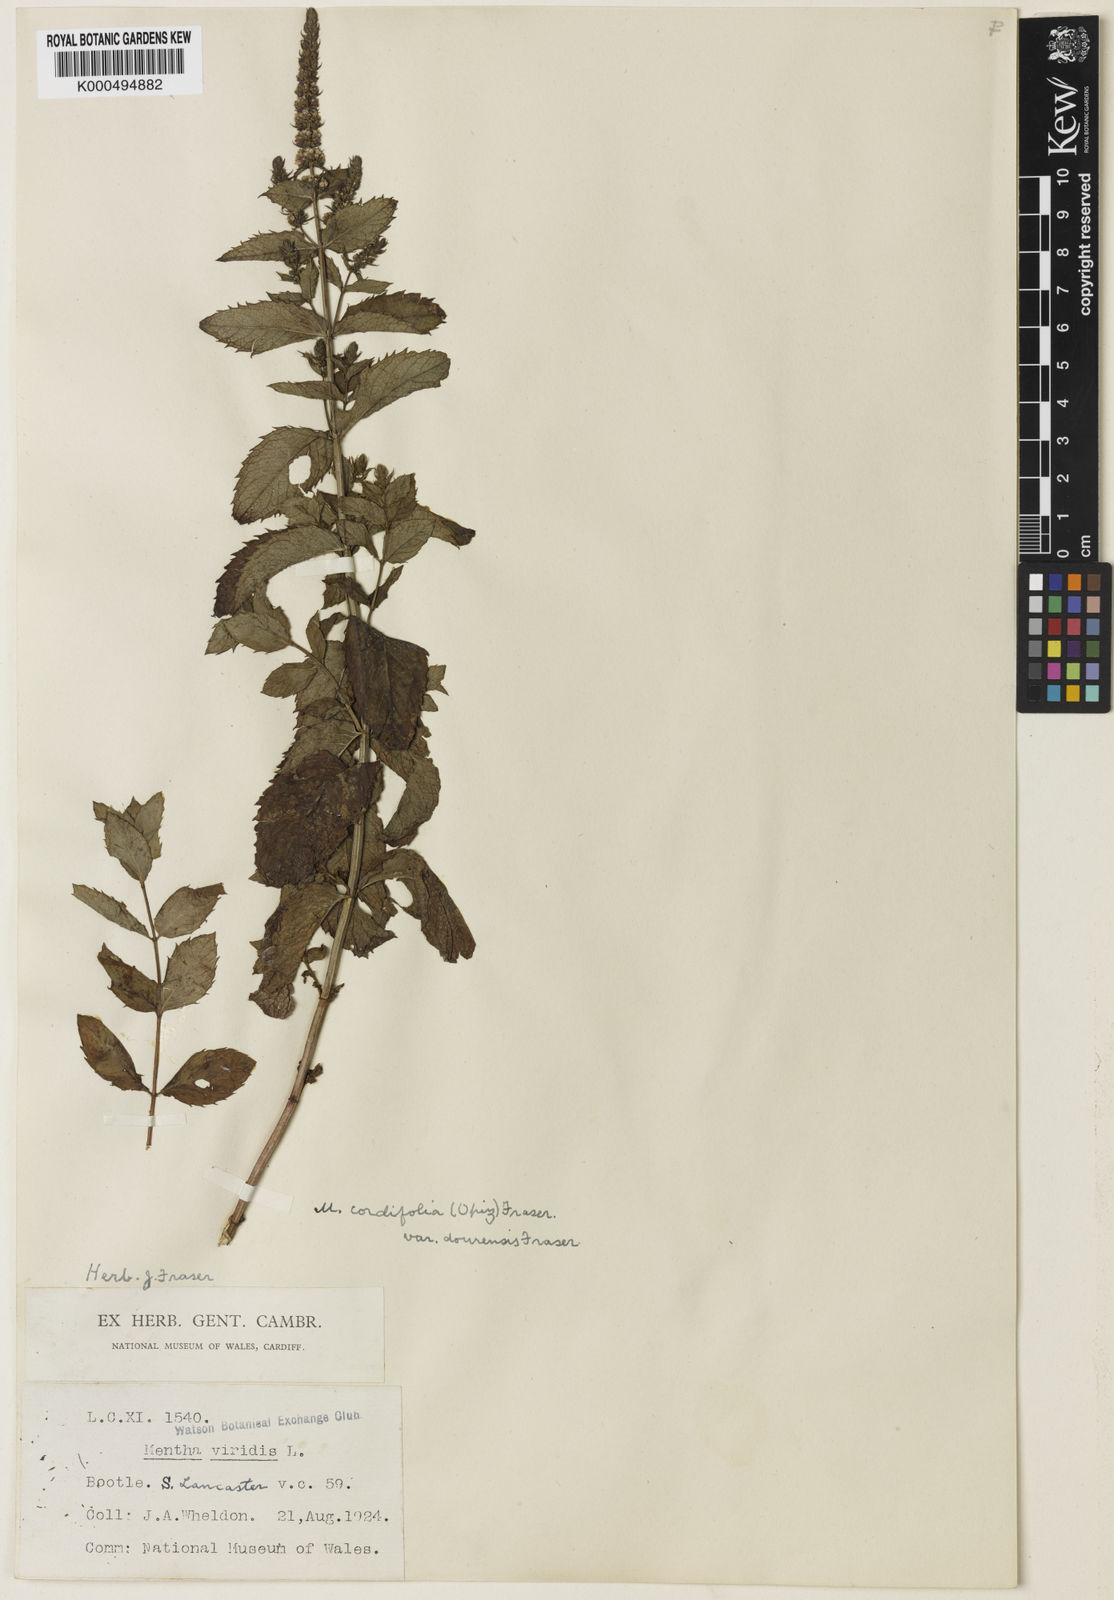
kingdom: Plantae
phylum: Tracheophyta
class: Magnoliopsida
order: Lamiales
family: Lamiaceae
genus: Mentha
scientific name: Mentha villosa
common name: Apple mint
